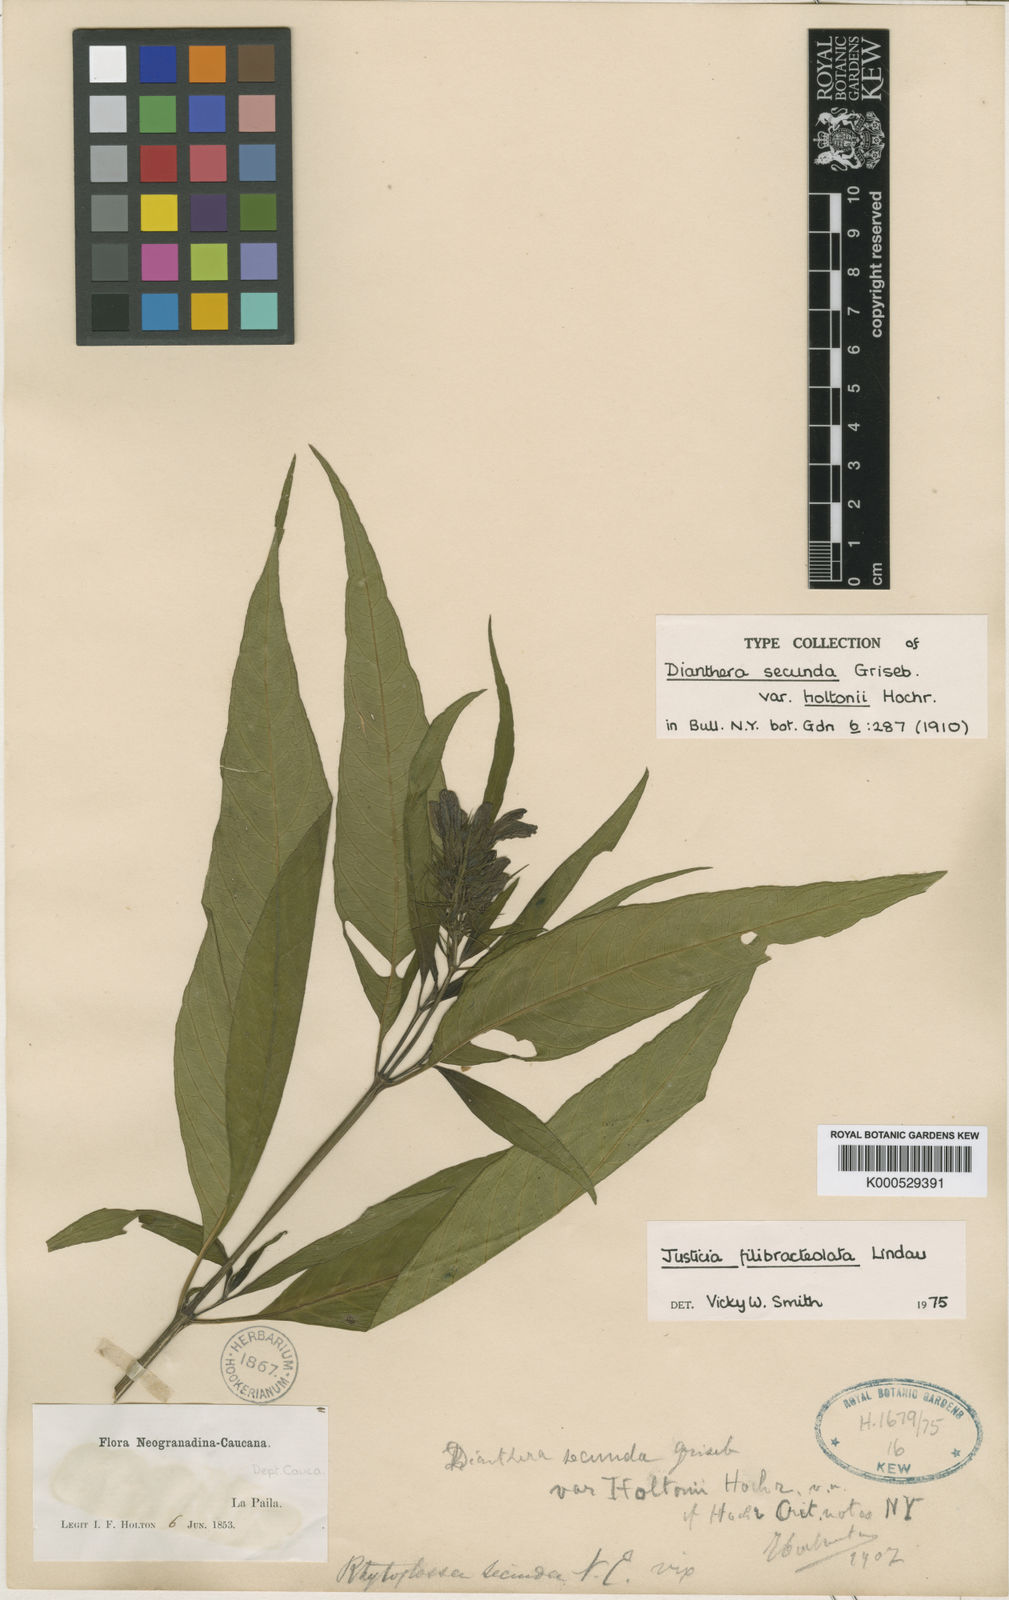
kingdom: Plantae
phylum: Tracheophyta
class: Magnoliopsida
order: Lamiales
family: Acanthaceae
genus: Justicia
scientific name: Justicia filibracteolata
